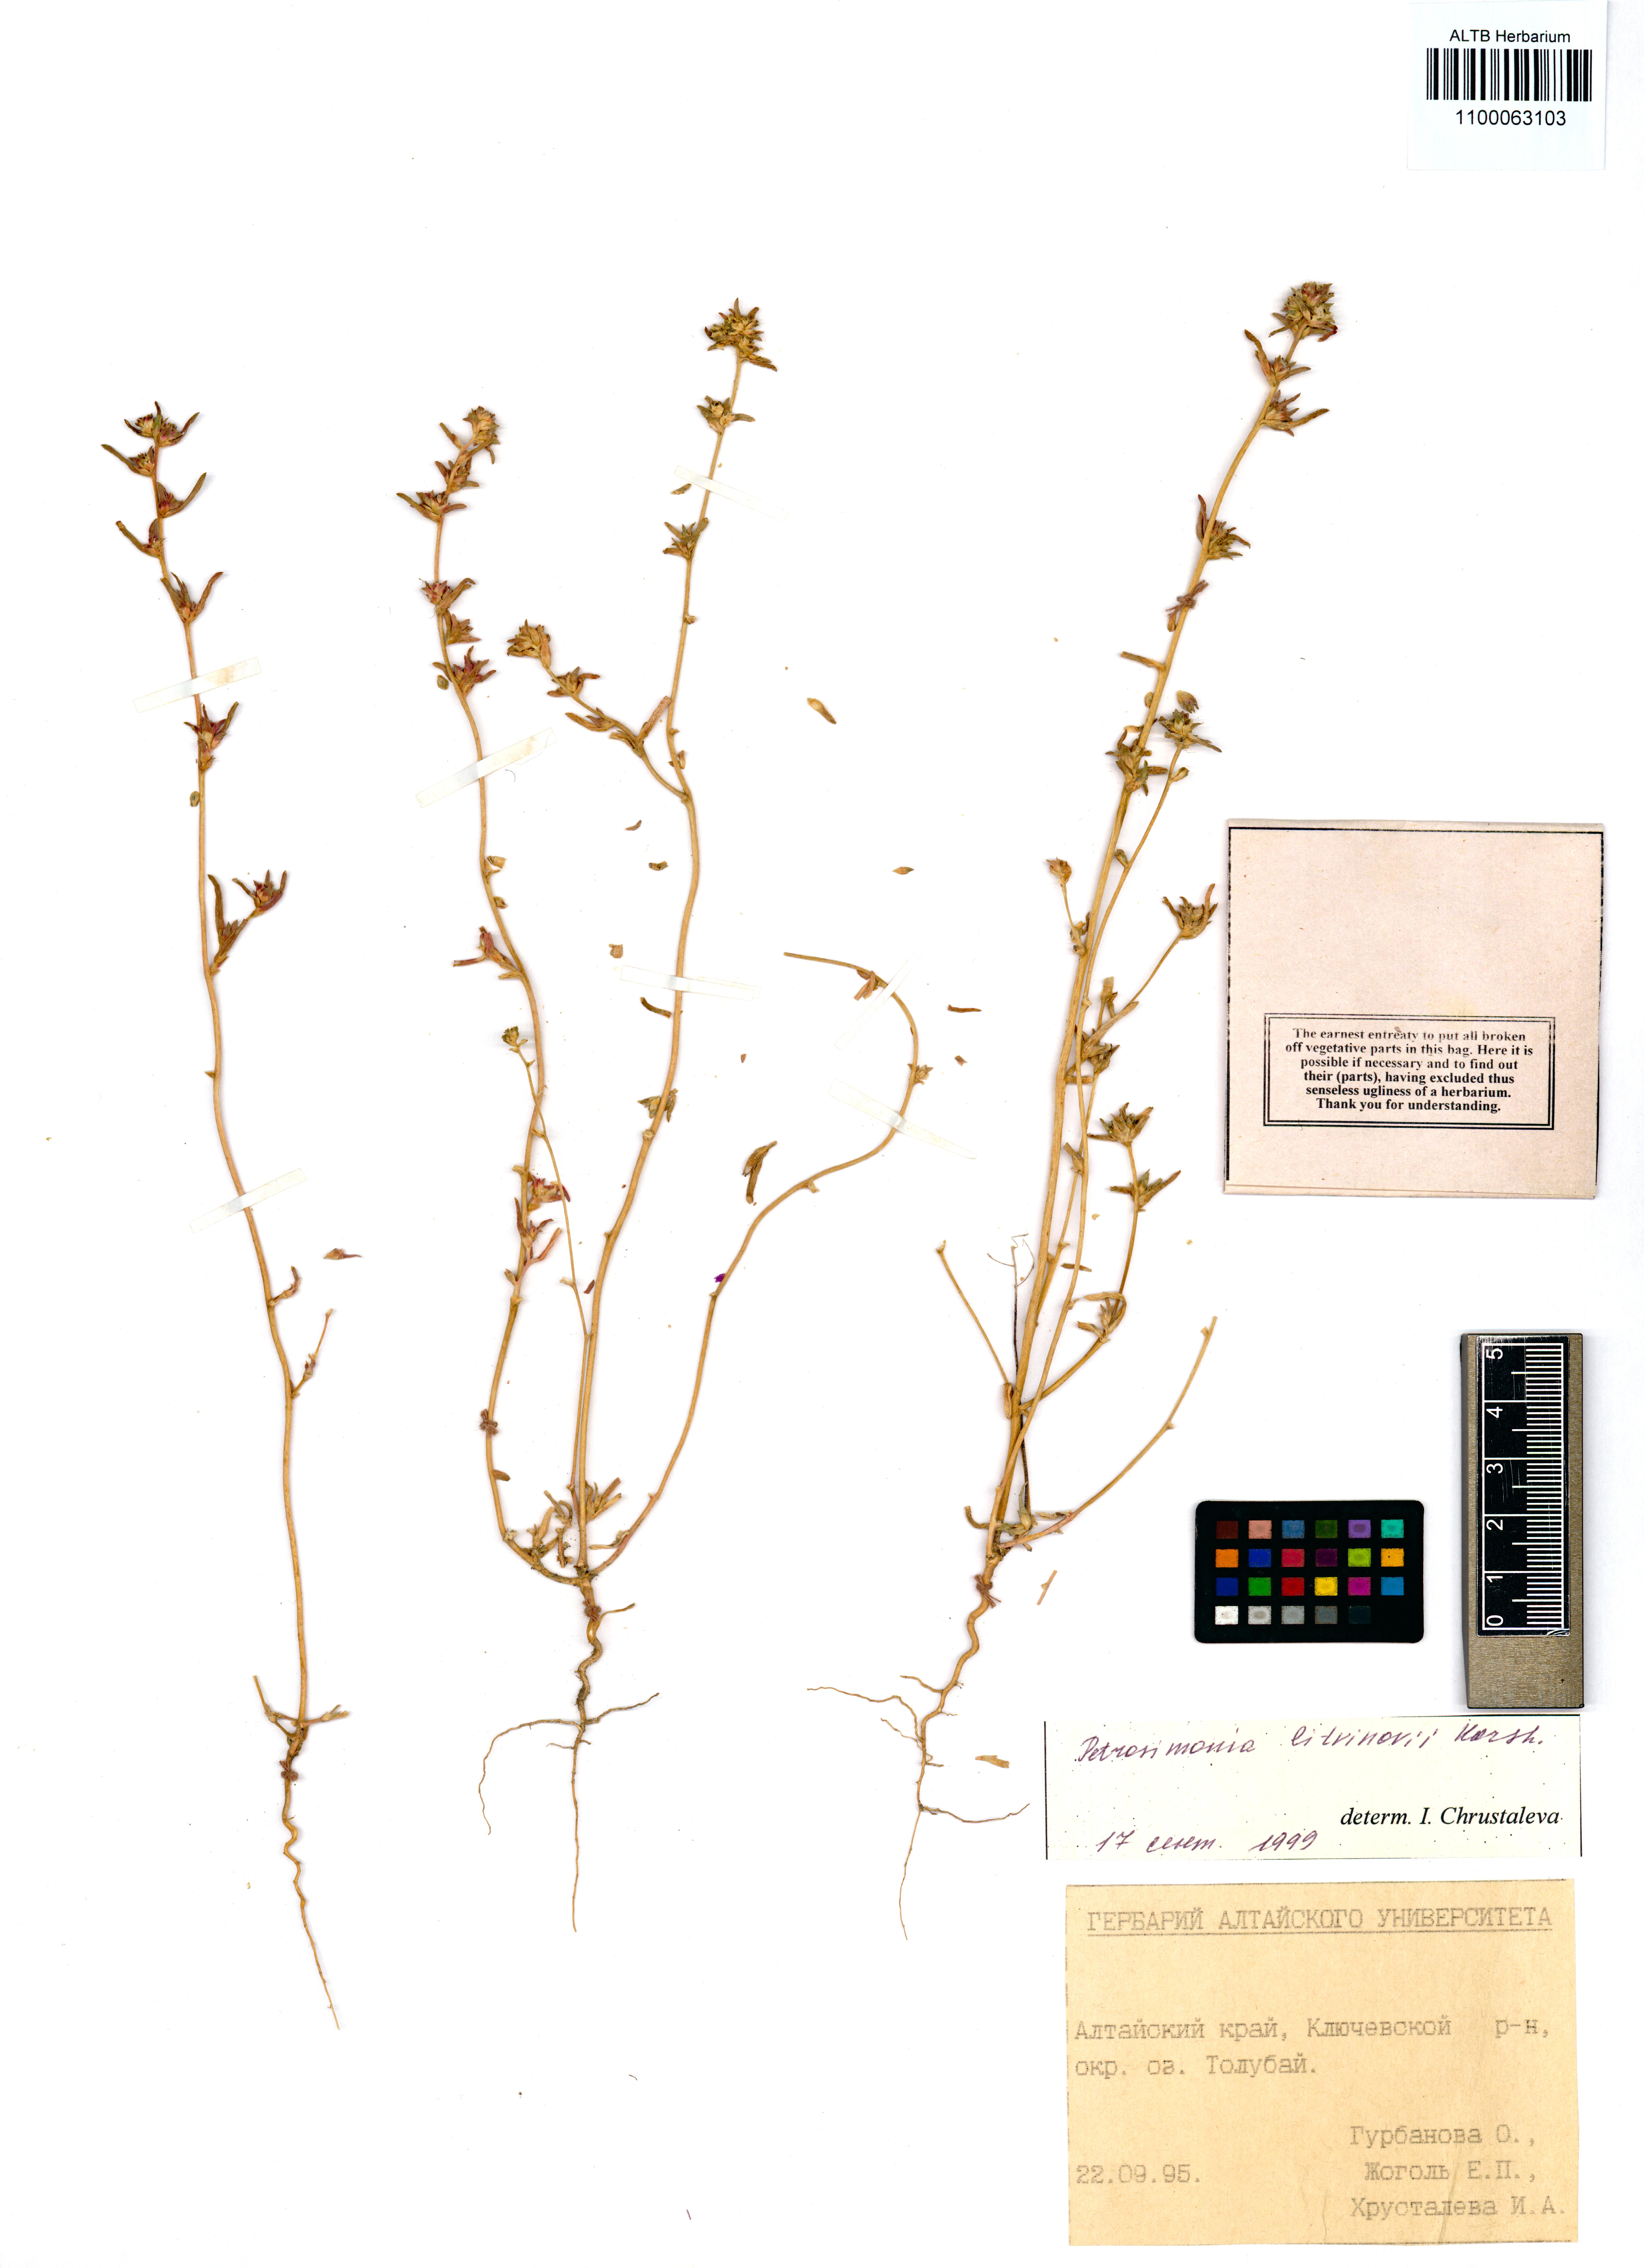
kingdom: Plantae
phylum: Tracheophyta
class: Magnoliopsida
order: Caryophyllales
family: Amaranthaceae
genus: Petrosimonia
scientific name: Petrosimonia litvinowi
